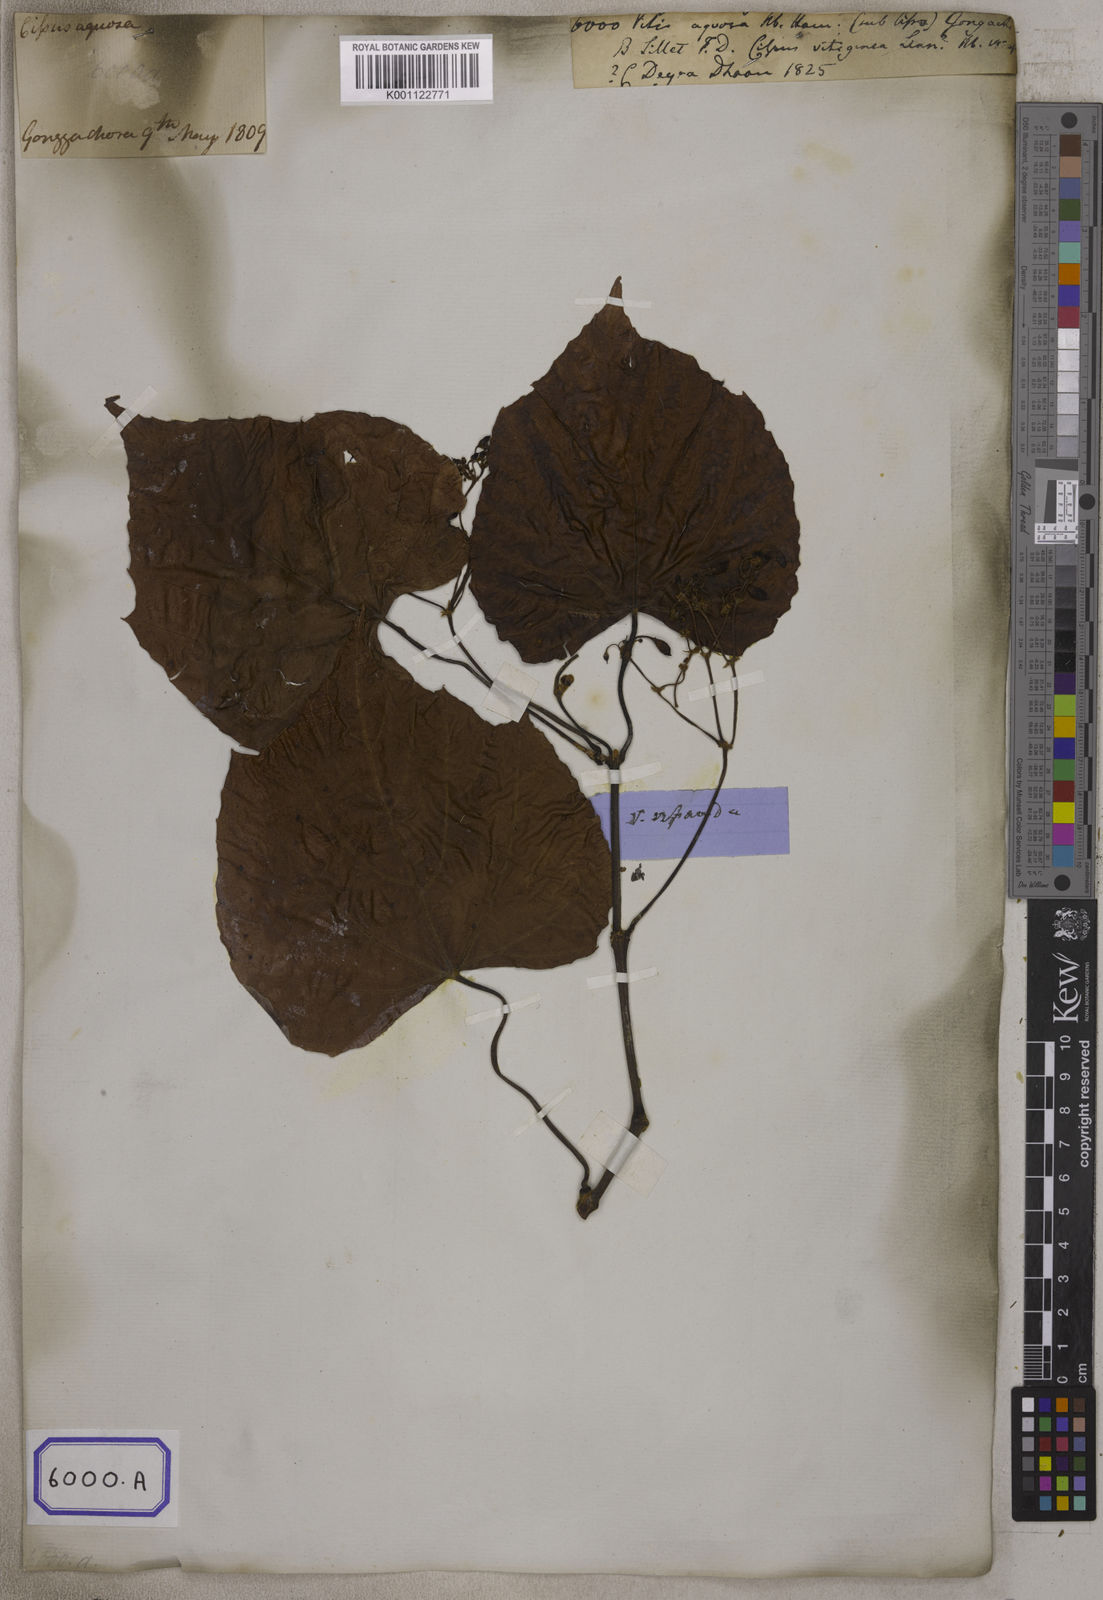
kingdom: Plantae
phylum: Tracheophyta
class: Magnoliopsida
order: Vitales
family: Vitaceae
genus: Cissus
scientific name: Cissus repanda
